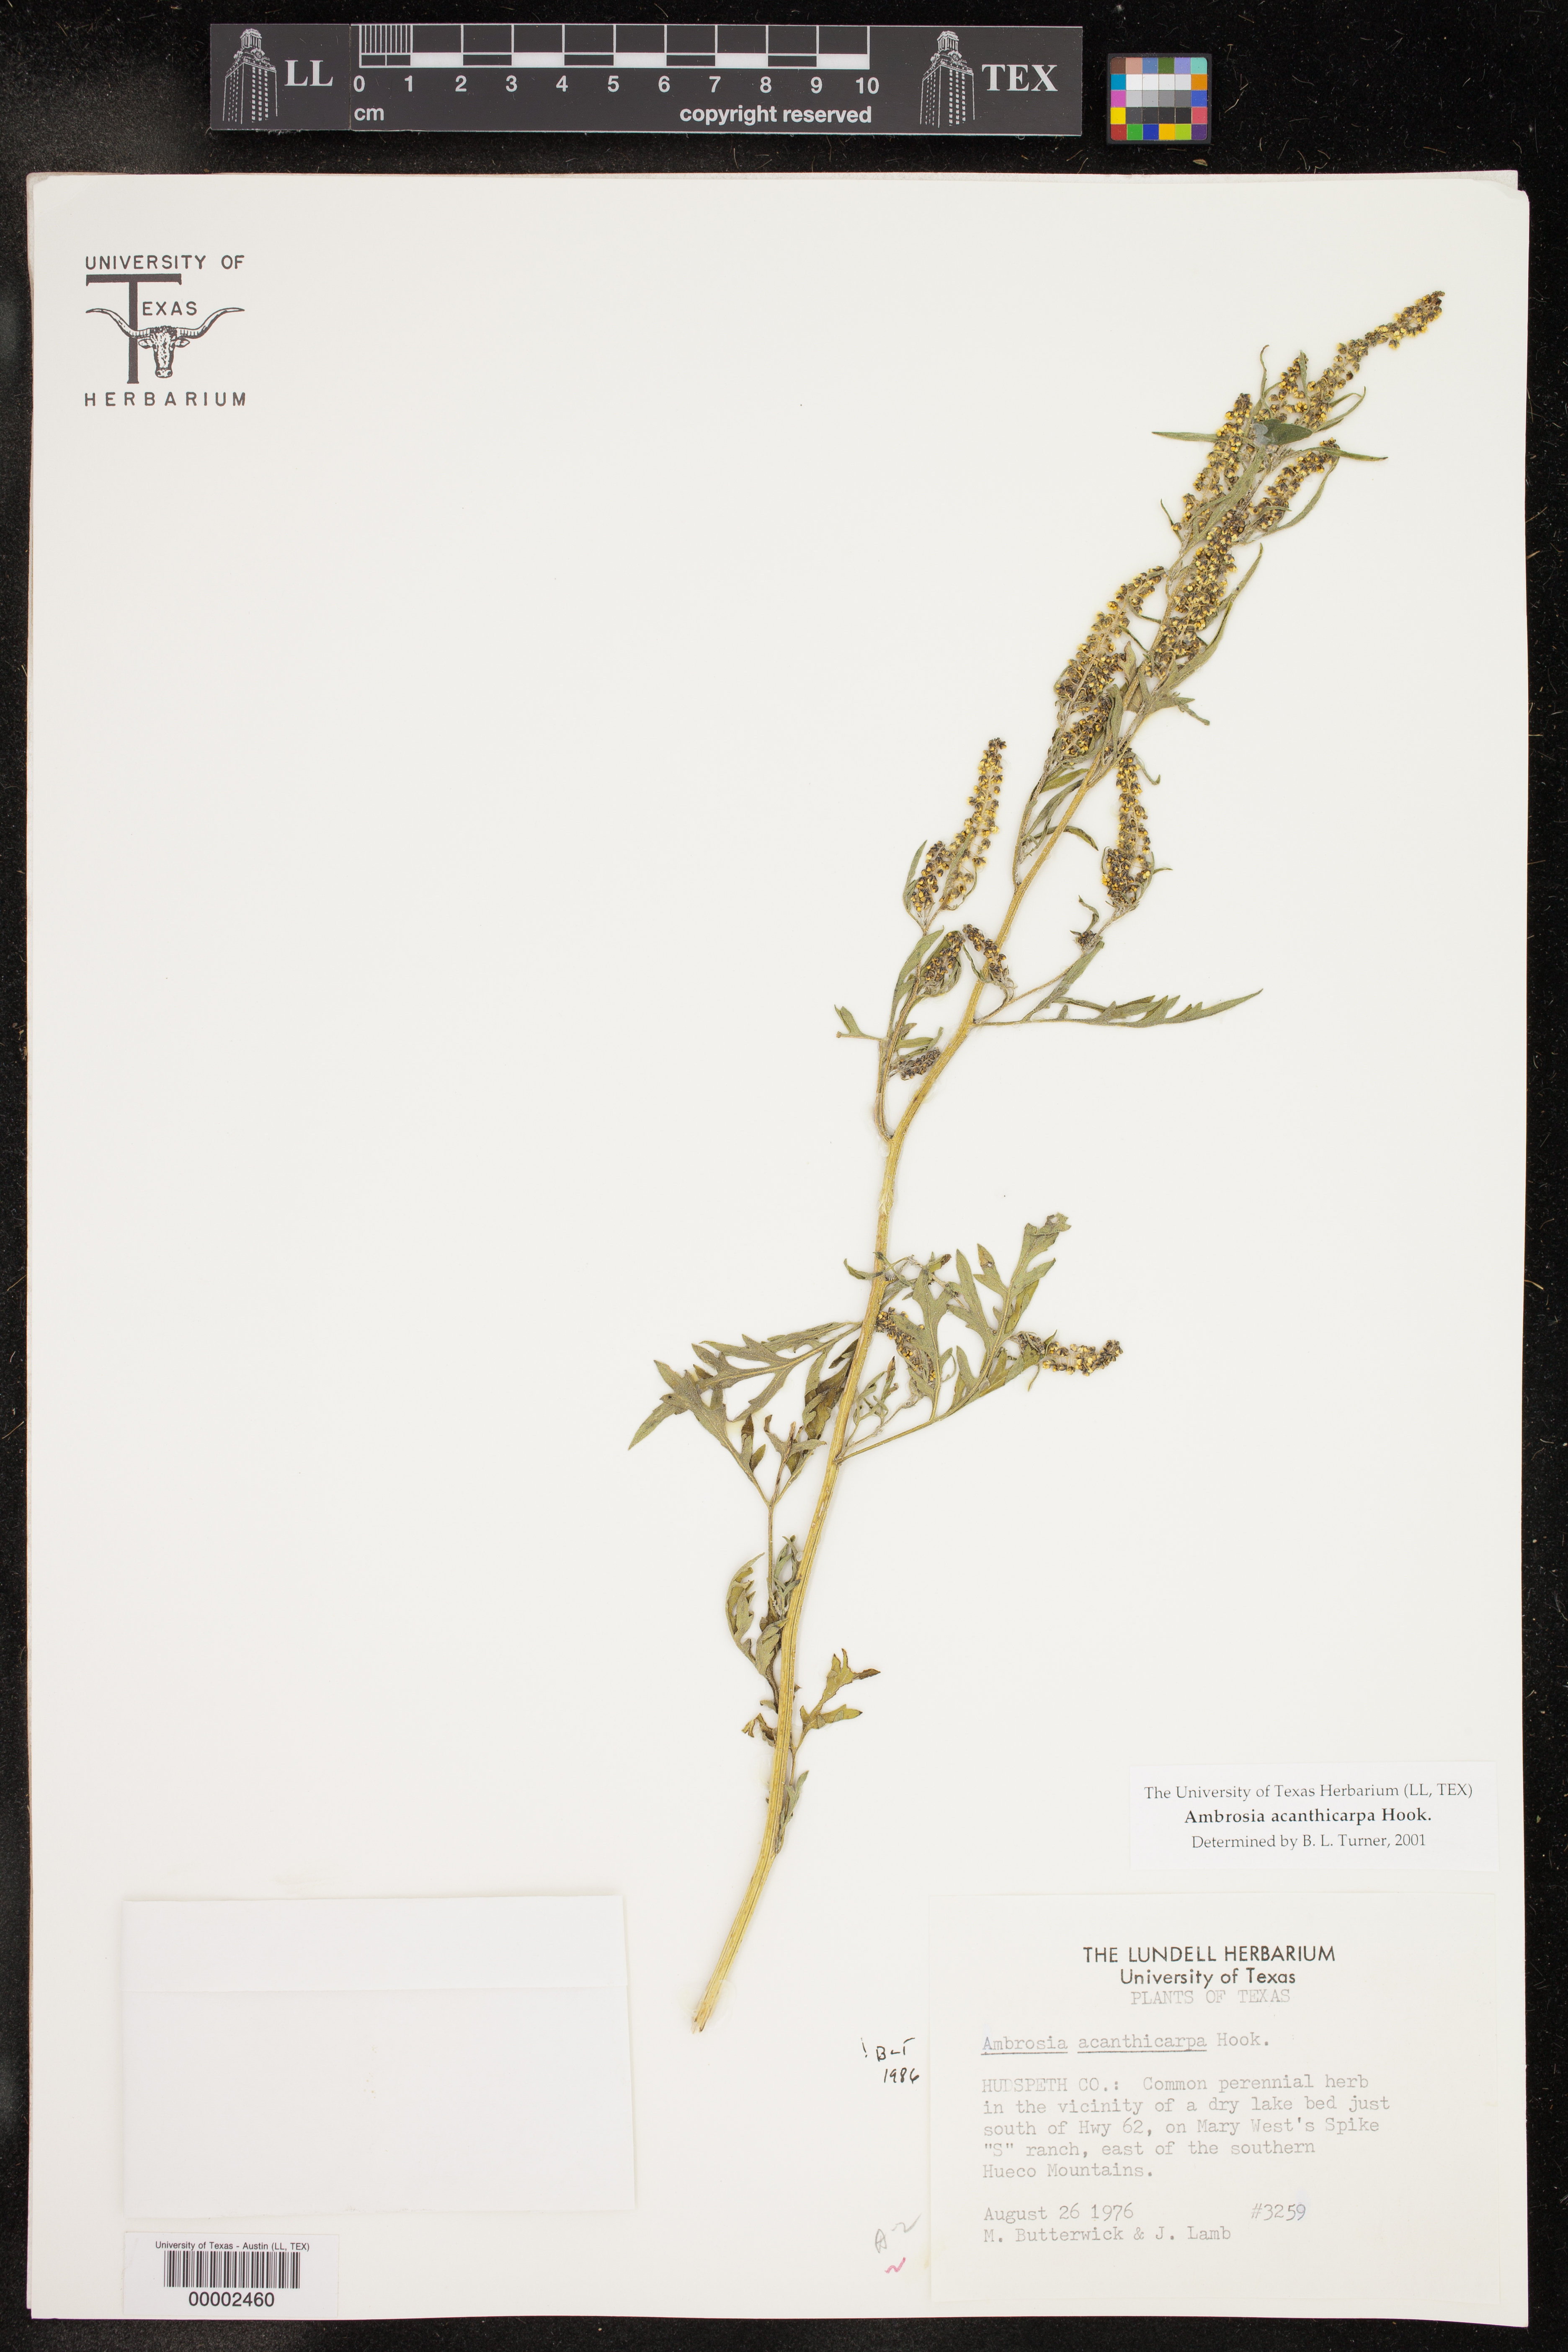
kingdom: Plantae
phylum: Tracheophyta
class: Magnoliopsida
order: Asterales
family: Asteraceae
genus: Ambrosia
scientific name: Ambrosia acanthicarpa
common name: Hooker's bur ragweed
